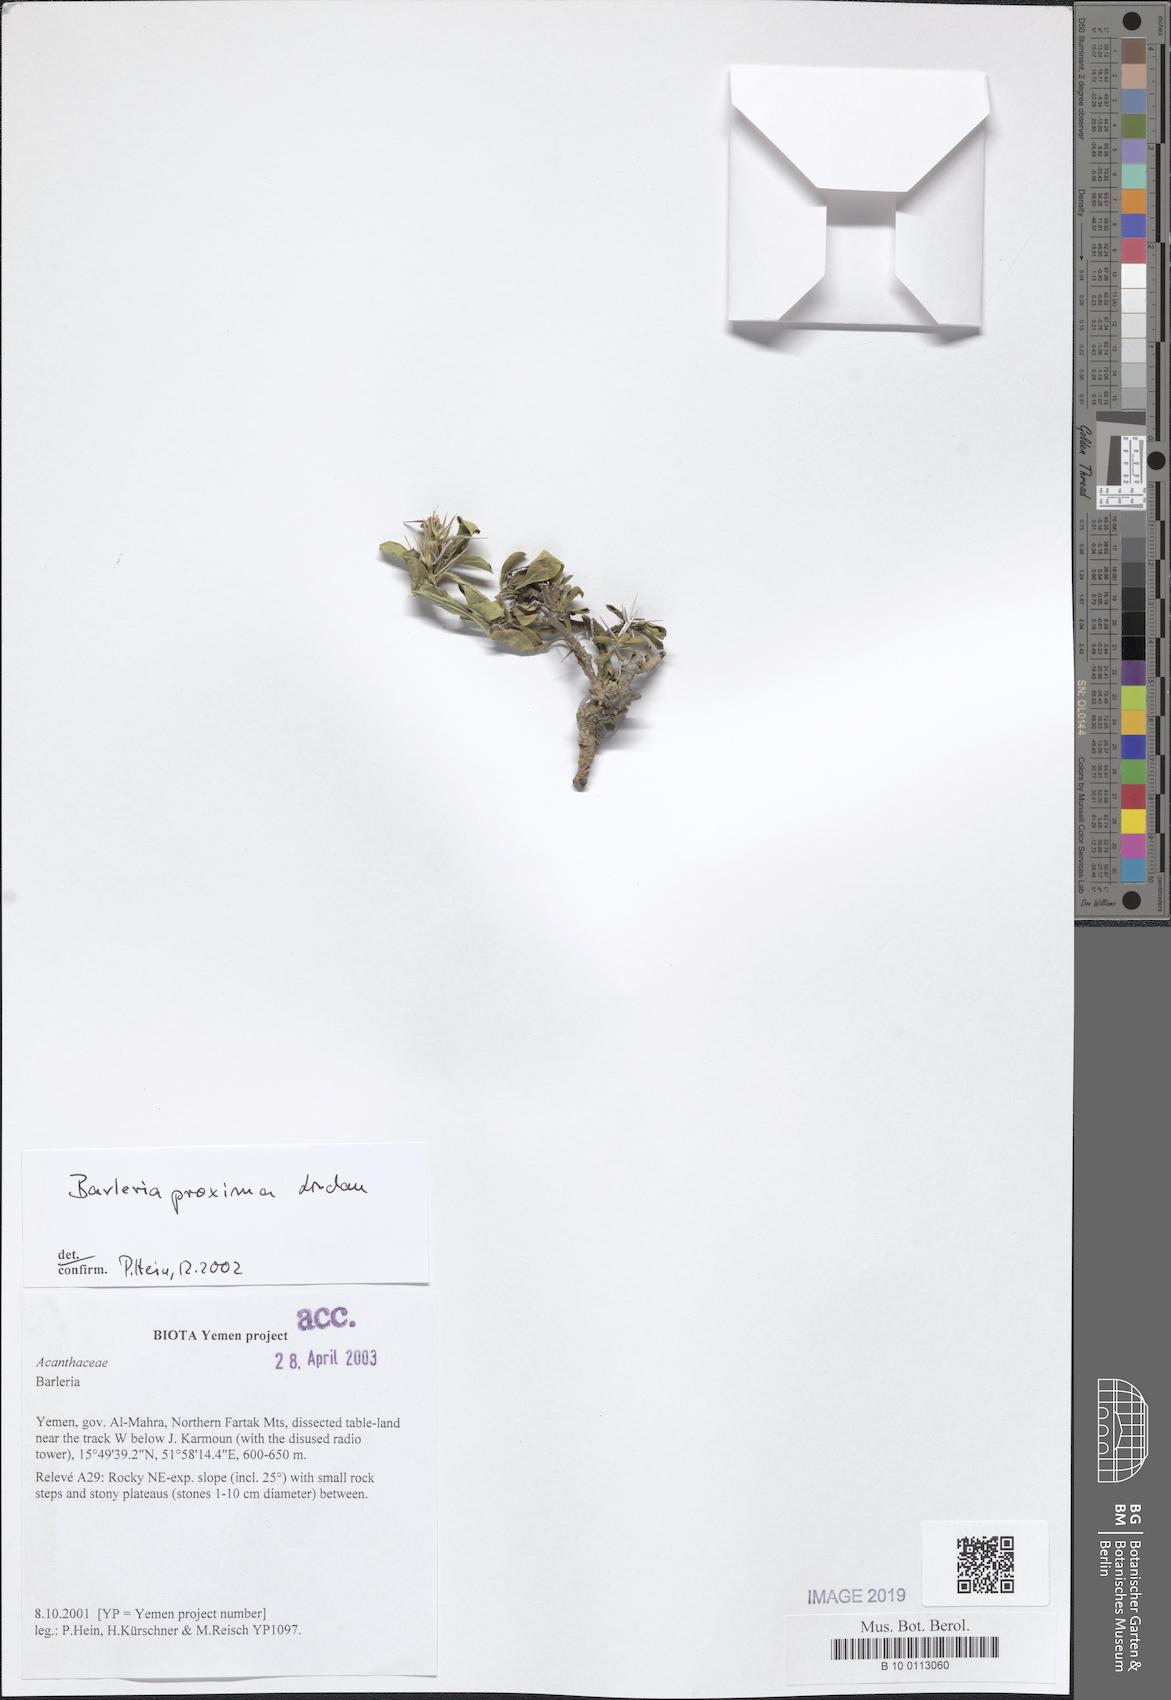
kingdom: Plantae
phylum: Tracheophyta
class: Magnoliopsida
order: Lamiales
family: Acanthaceae
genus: Barleria
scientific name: Barleria proxima
